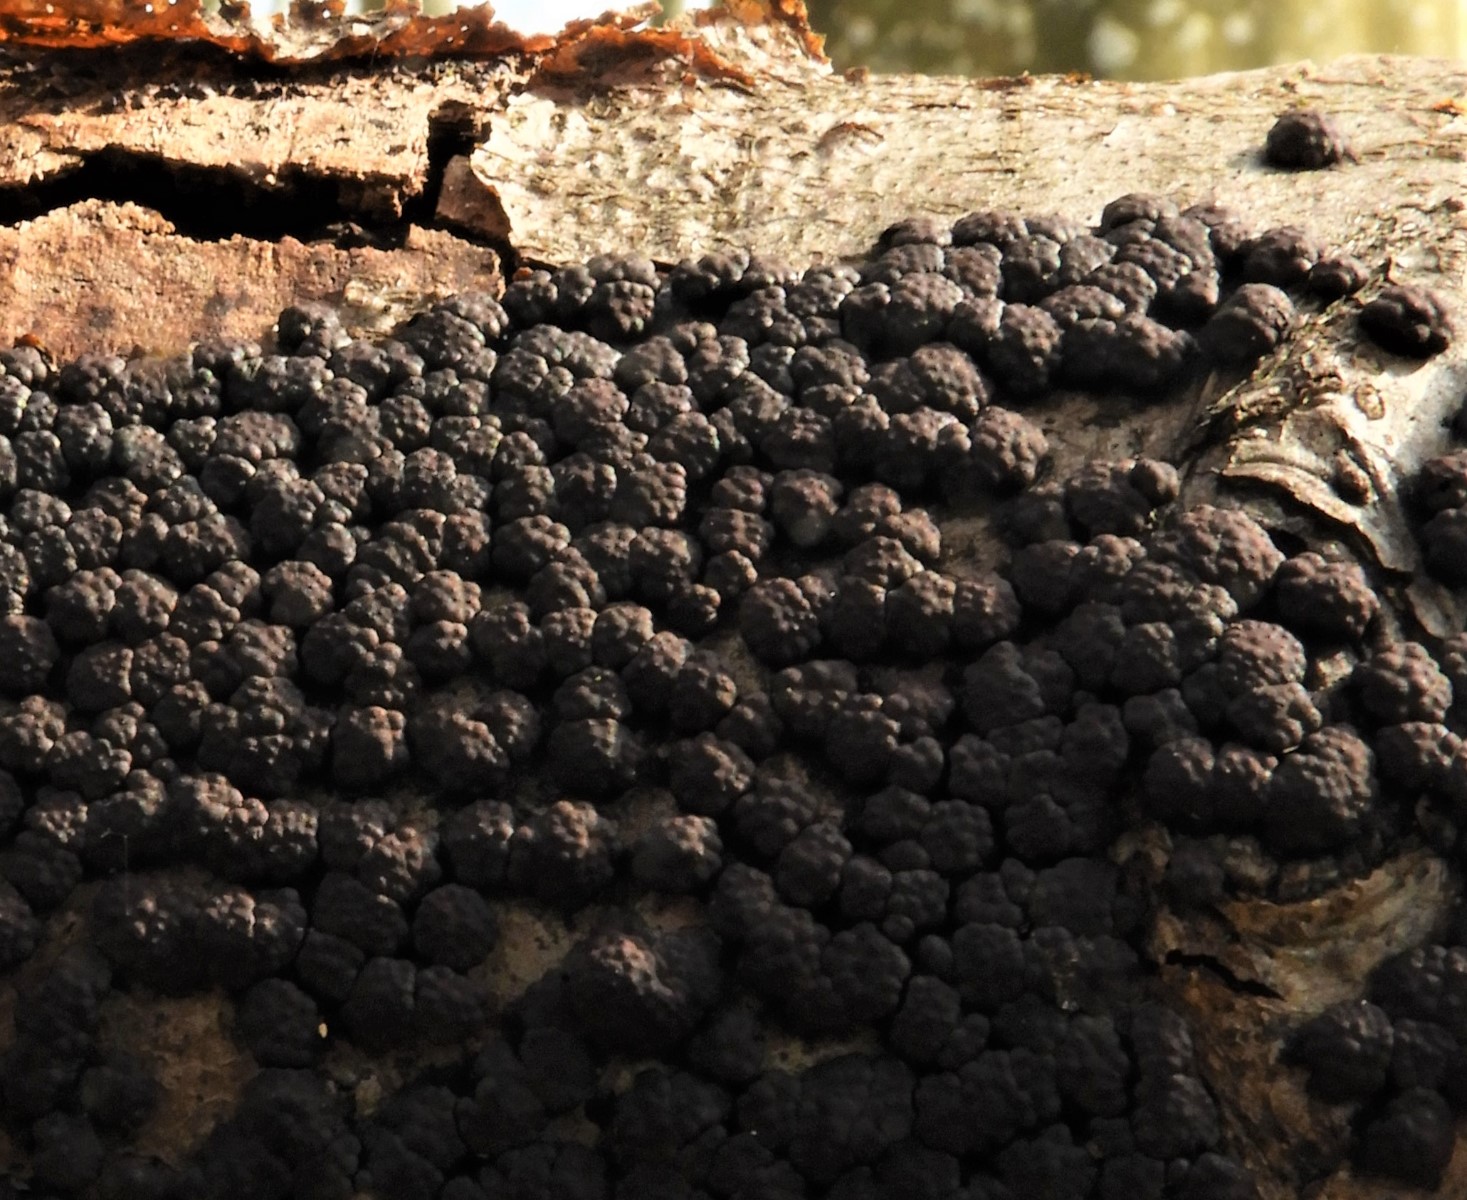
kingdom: Fungi
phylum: Ascomycota
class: Sordariomycetes
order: Xylariales
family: Hypoxylaceae
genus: Jackrogersella
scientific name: Jackrogersella cohaerens
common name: sammenflydende kulbær
